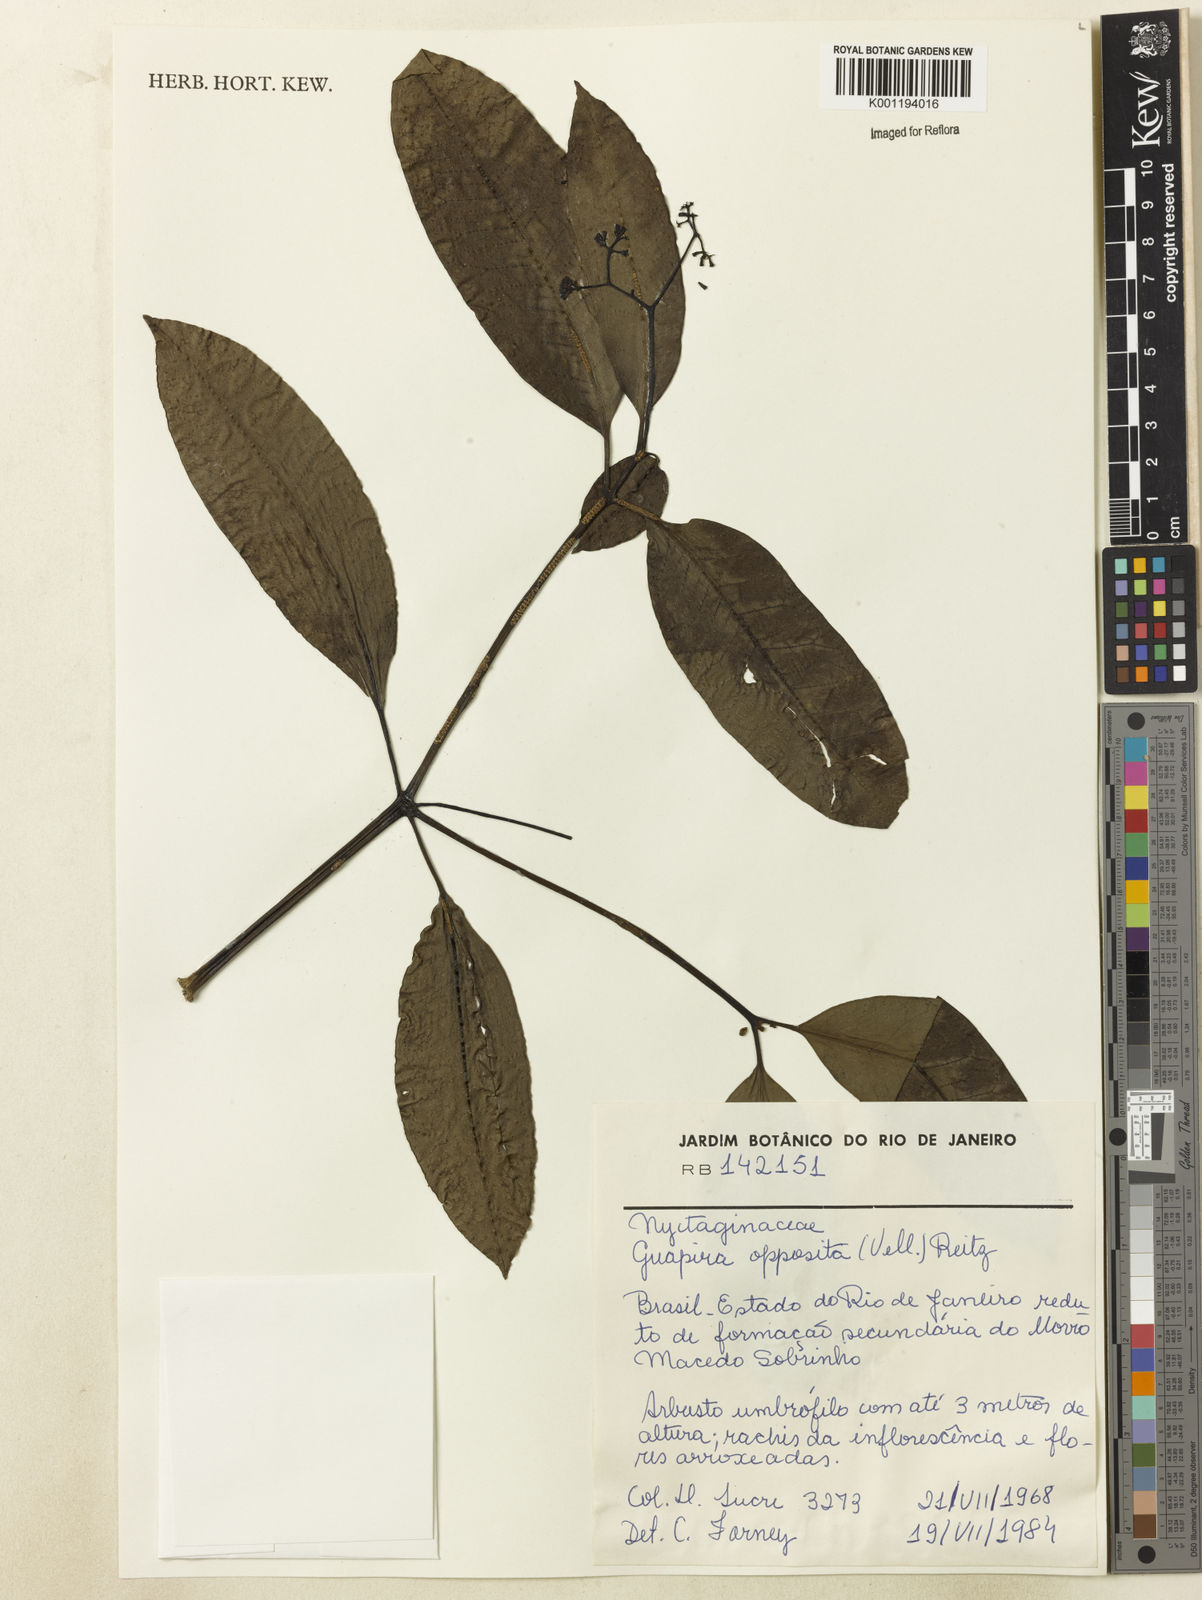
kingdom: Plantae
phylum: Tracheophyta
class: Magnoliopsida
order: Caryophyllales
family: Nyctaginaceae
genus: Guapira
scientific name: Guapira opposita
